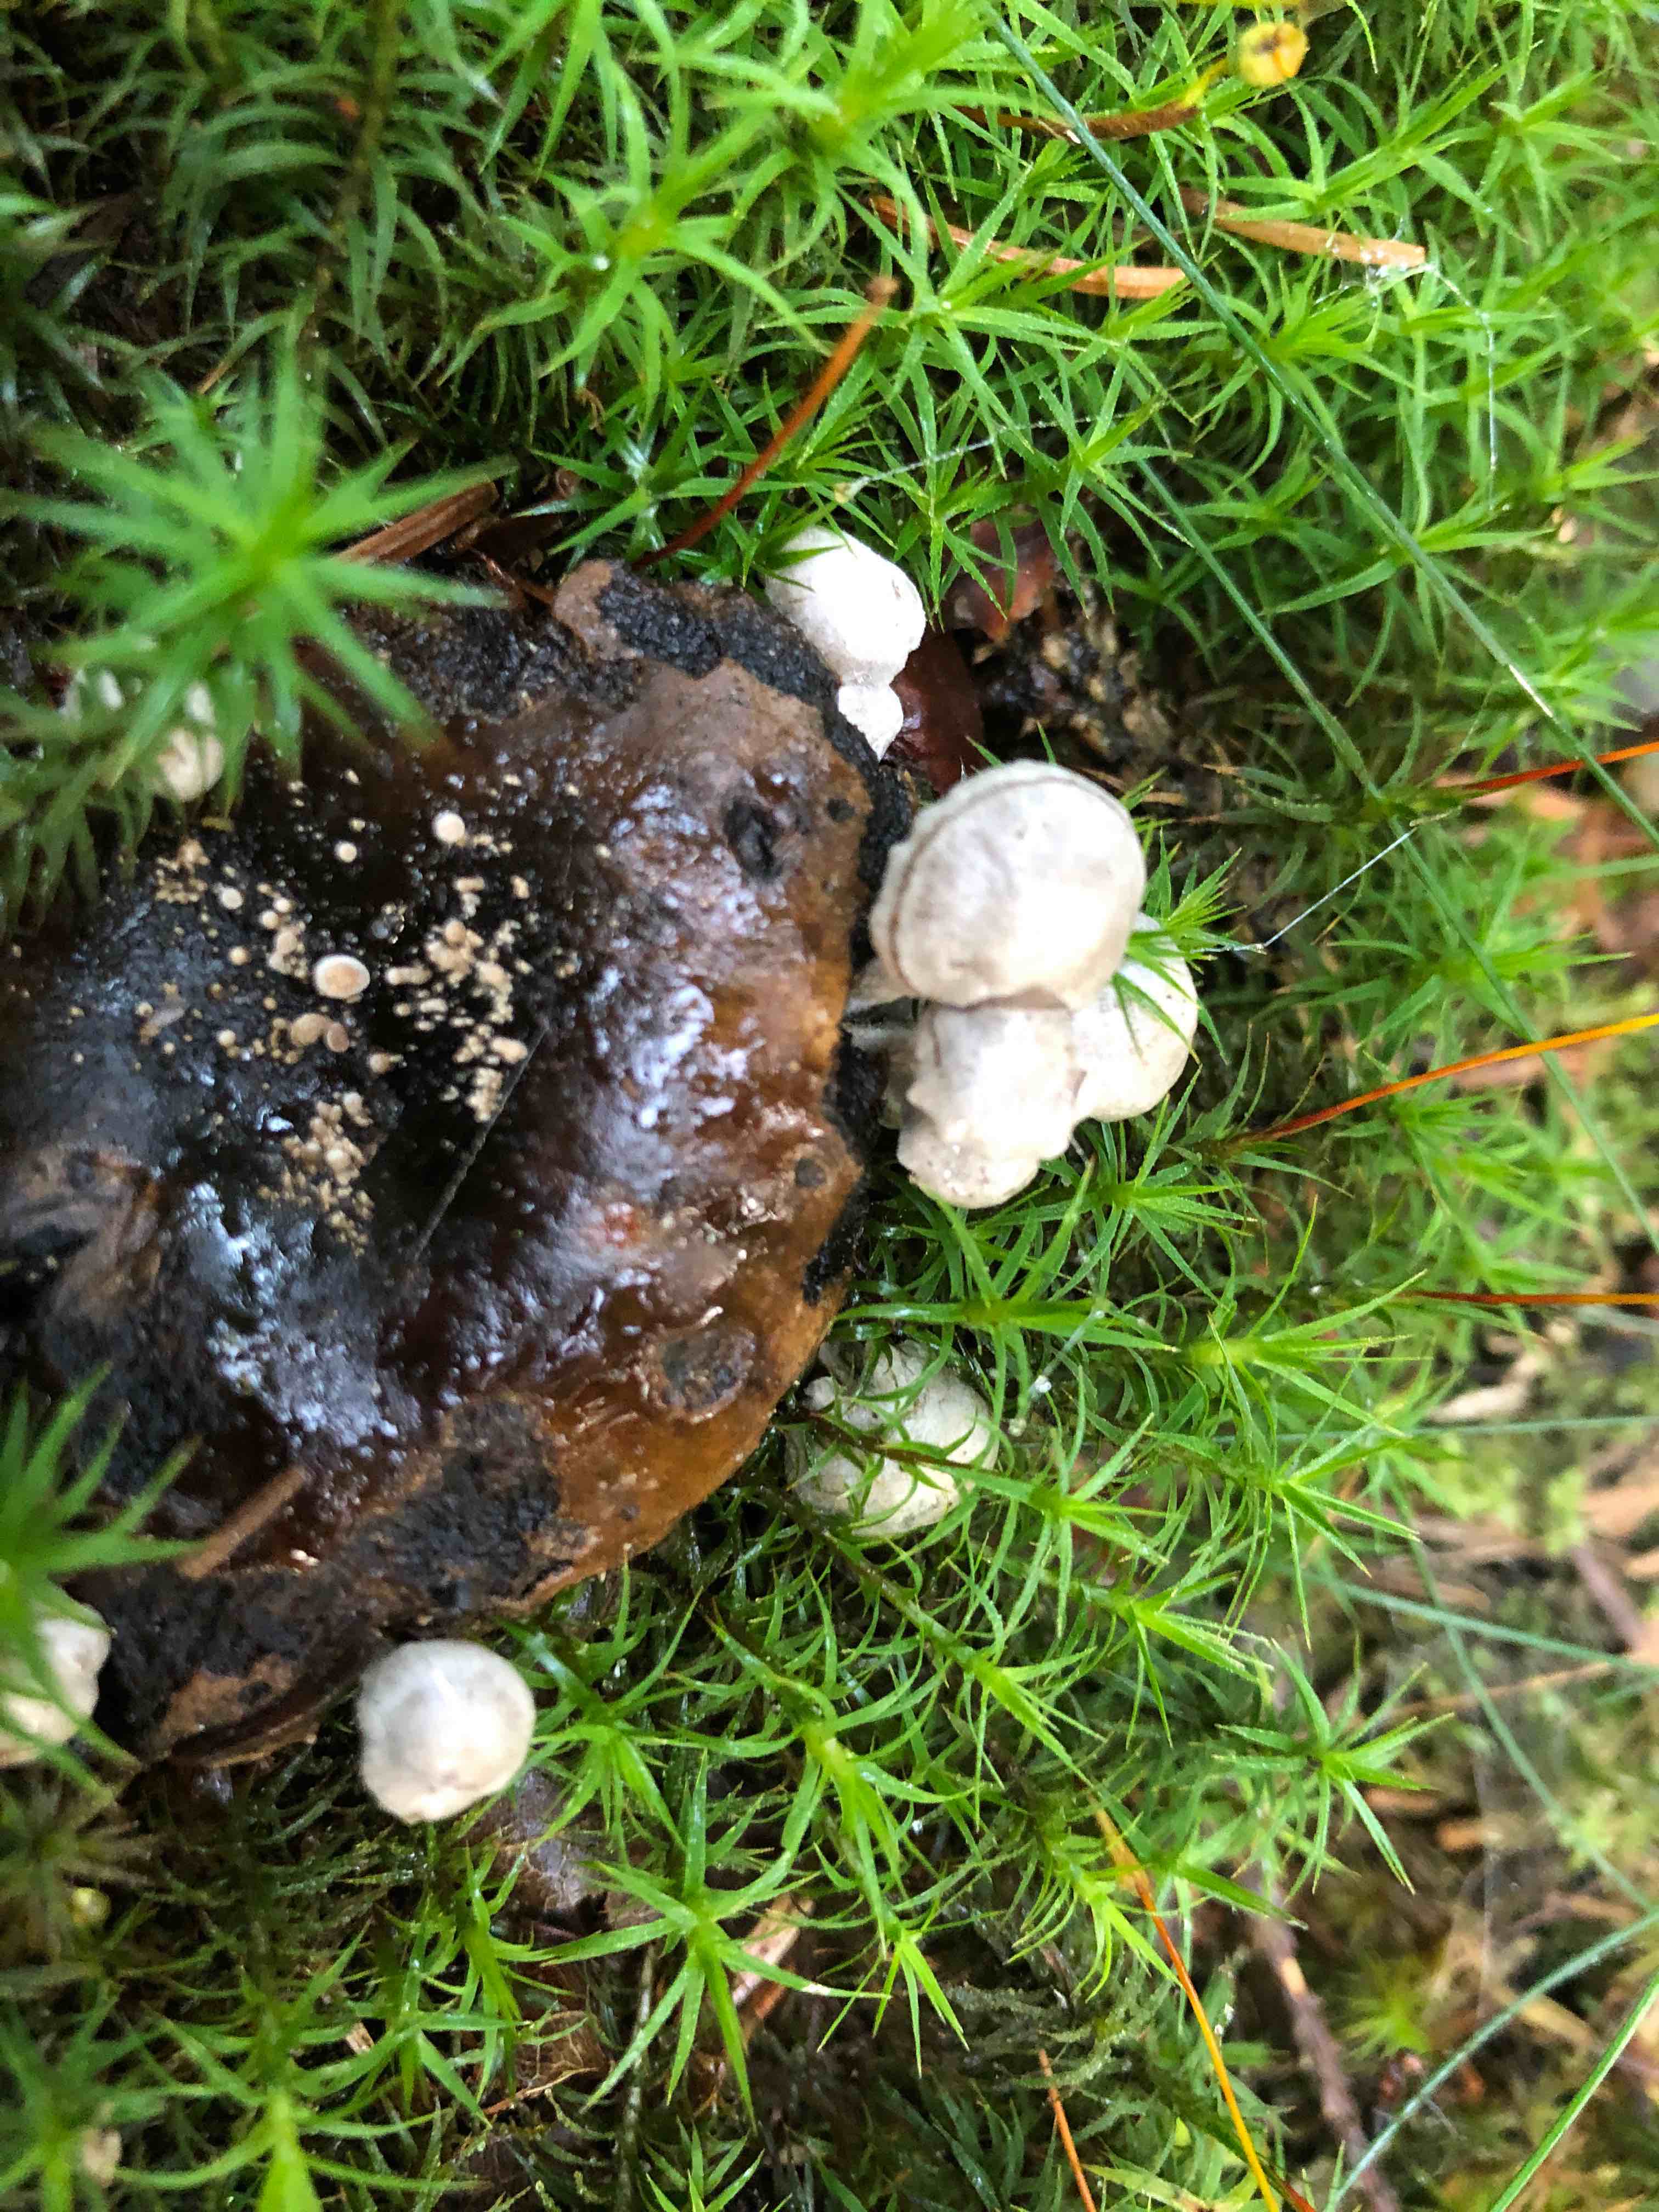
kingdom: Fungi
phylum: Basidiomycota
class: Agaricomycetes
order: Agaricales
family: Lyophyllaceae
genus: Asterophora
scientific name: Asterophora parasitica
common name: grå snyltehat
